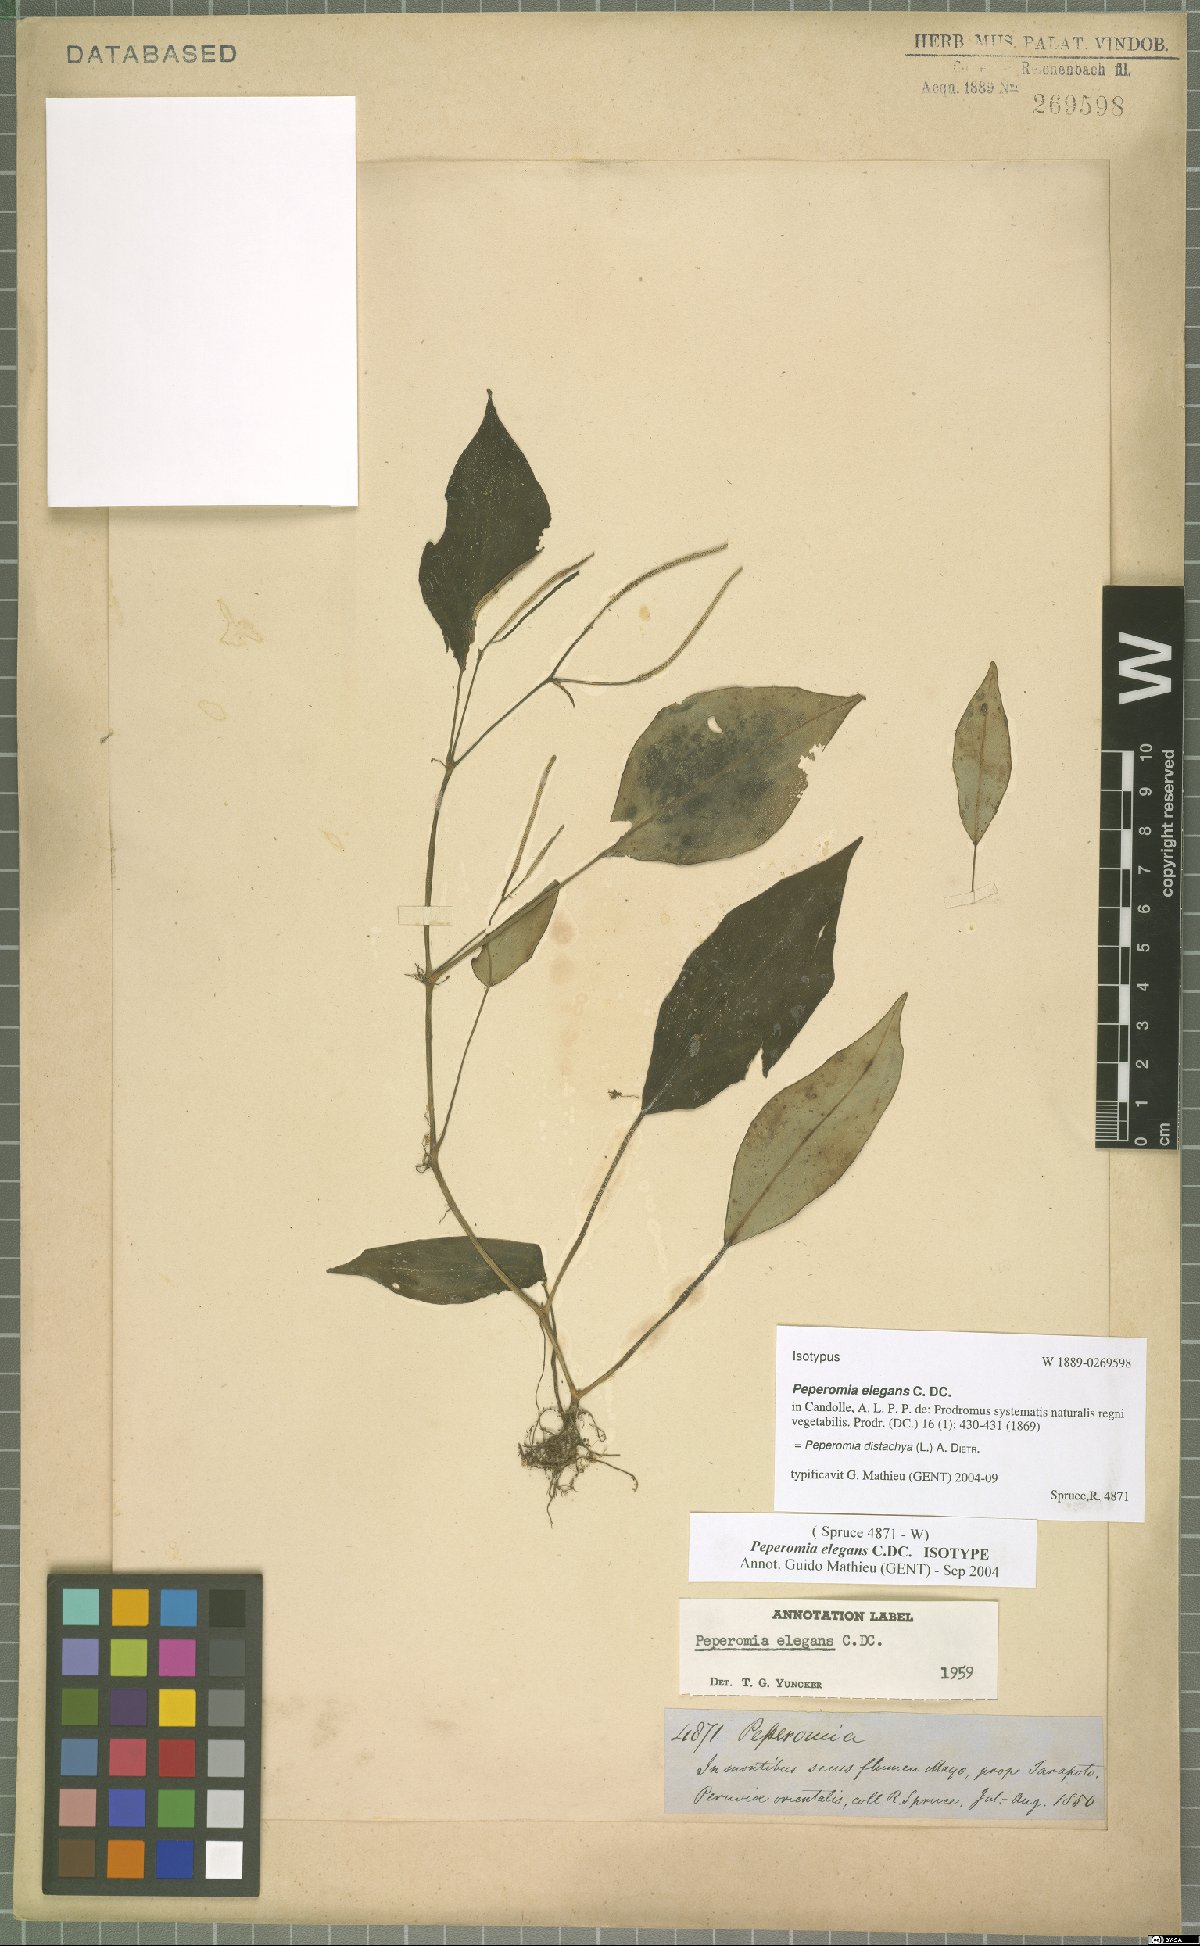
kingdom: Plantae
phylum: Tracheophyta
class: Magnoliopsida
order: Piperales
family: Piperaceae
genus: Peperomia
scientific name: Peperomia distachyos
